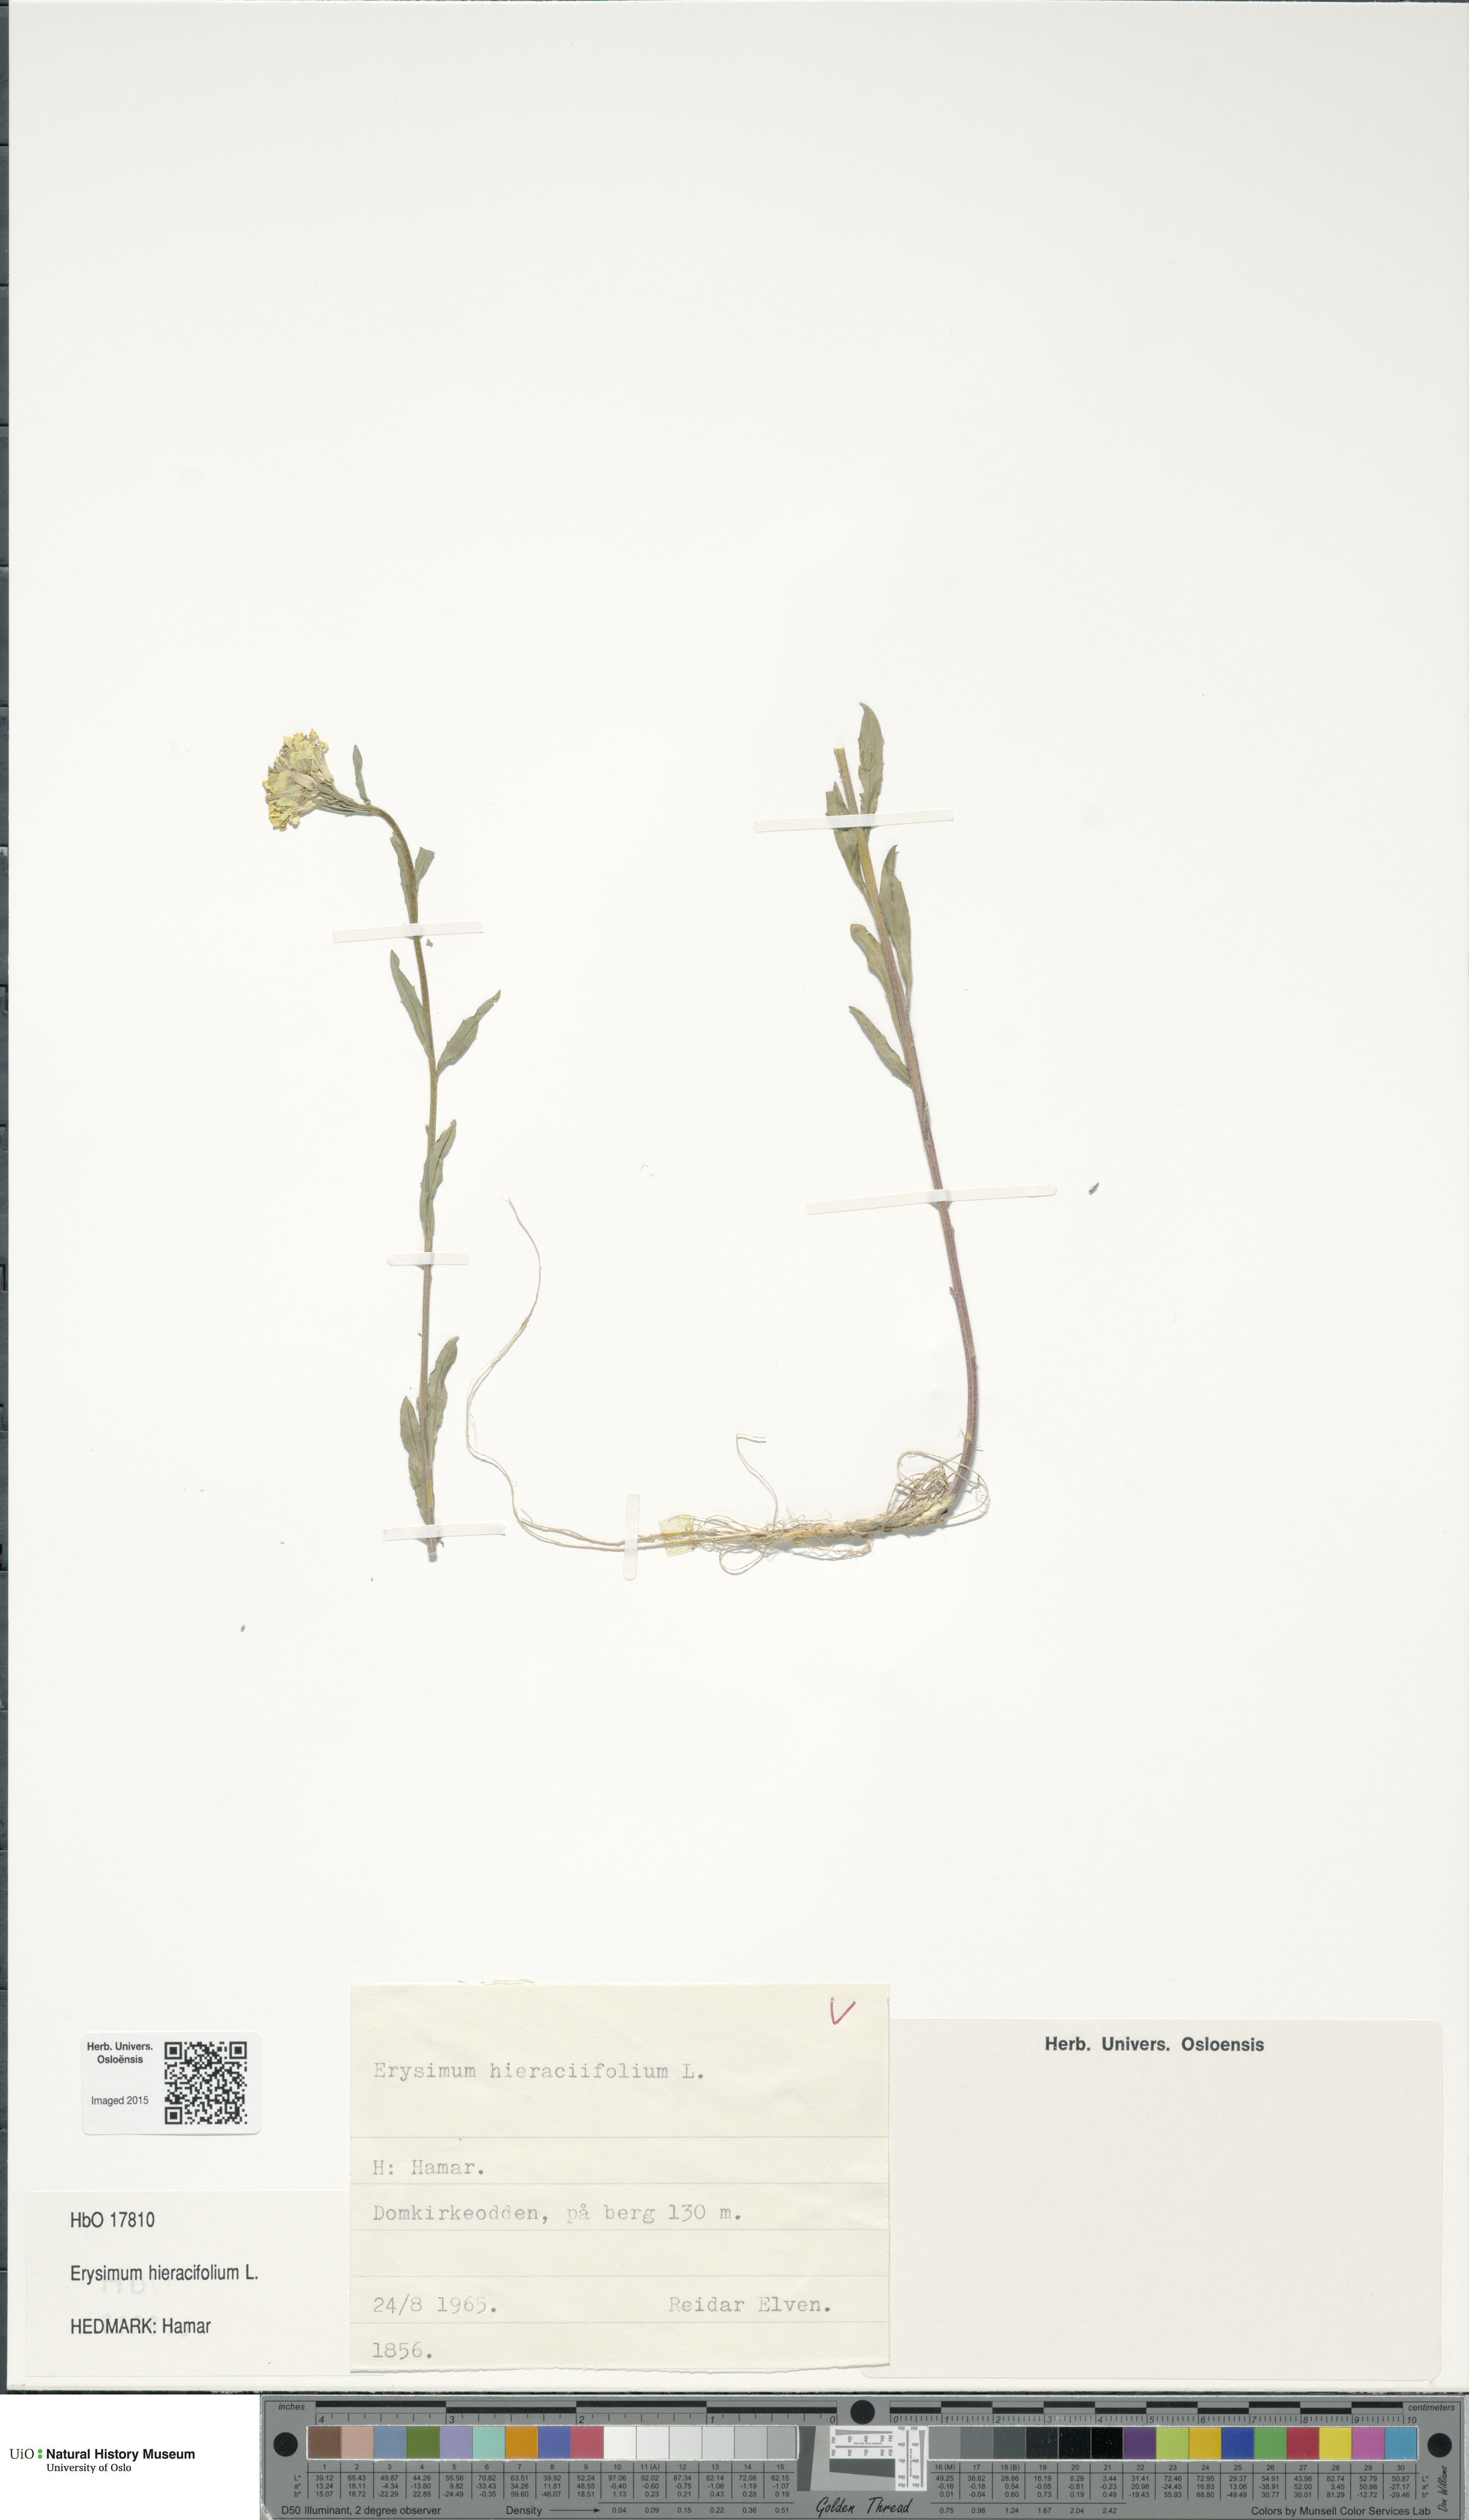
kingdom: Plantae
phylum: Tracheophyta
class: Magnoliopsida
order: Brassicales
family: Brassicaceae
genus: Erysimum
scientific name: Erysimum hieraciifolium
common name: European wallflower
